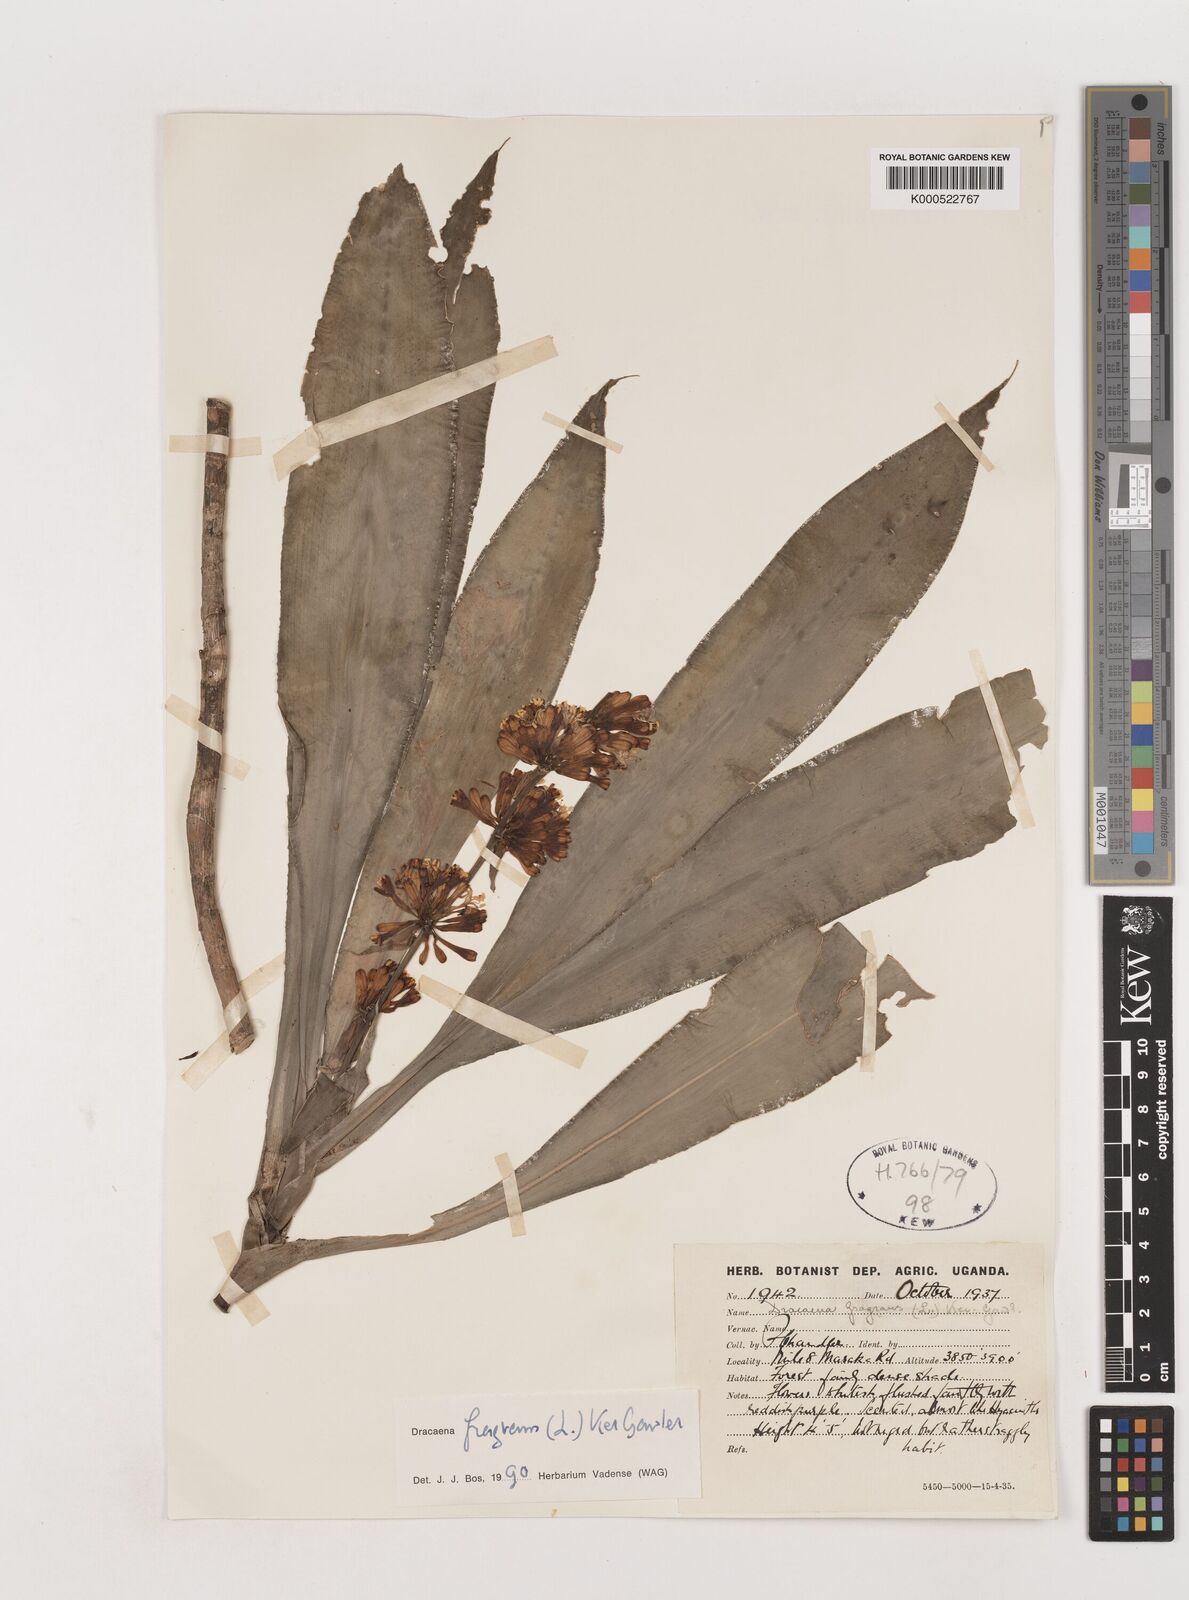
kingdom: Plantae
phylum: Tracheophyta
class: Liliopsida
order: Asparagales
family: Asparagaceae
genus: Dracaena
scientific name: Dracaena fragrans
